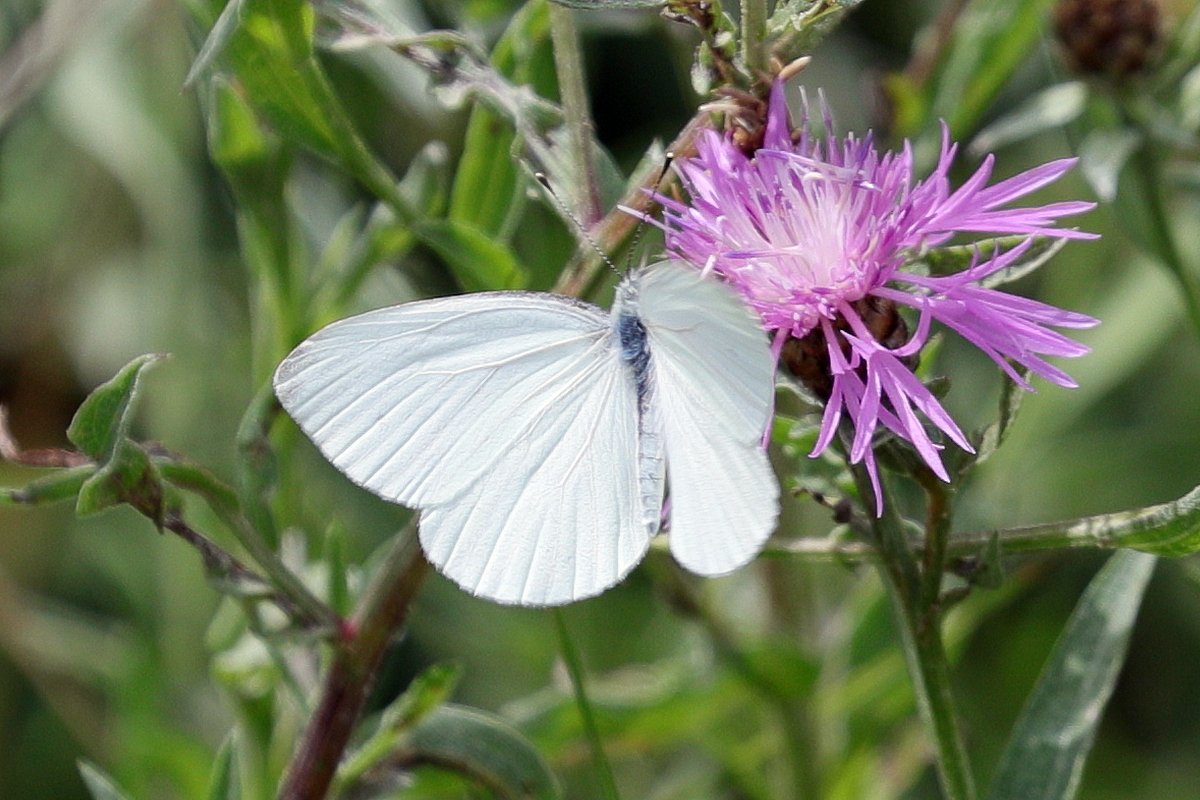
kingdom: Animalia
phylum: Arthropoda
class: Insecta
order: Lepidoptera
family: Pieridae
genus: Pieris
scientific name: Pieris oleracea
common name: Mustard White
